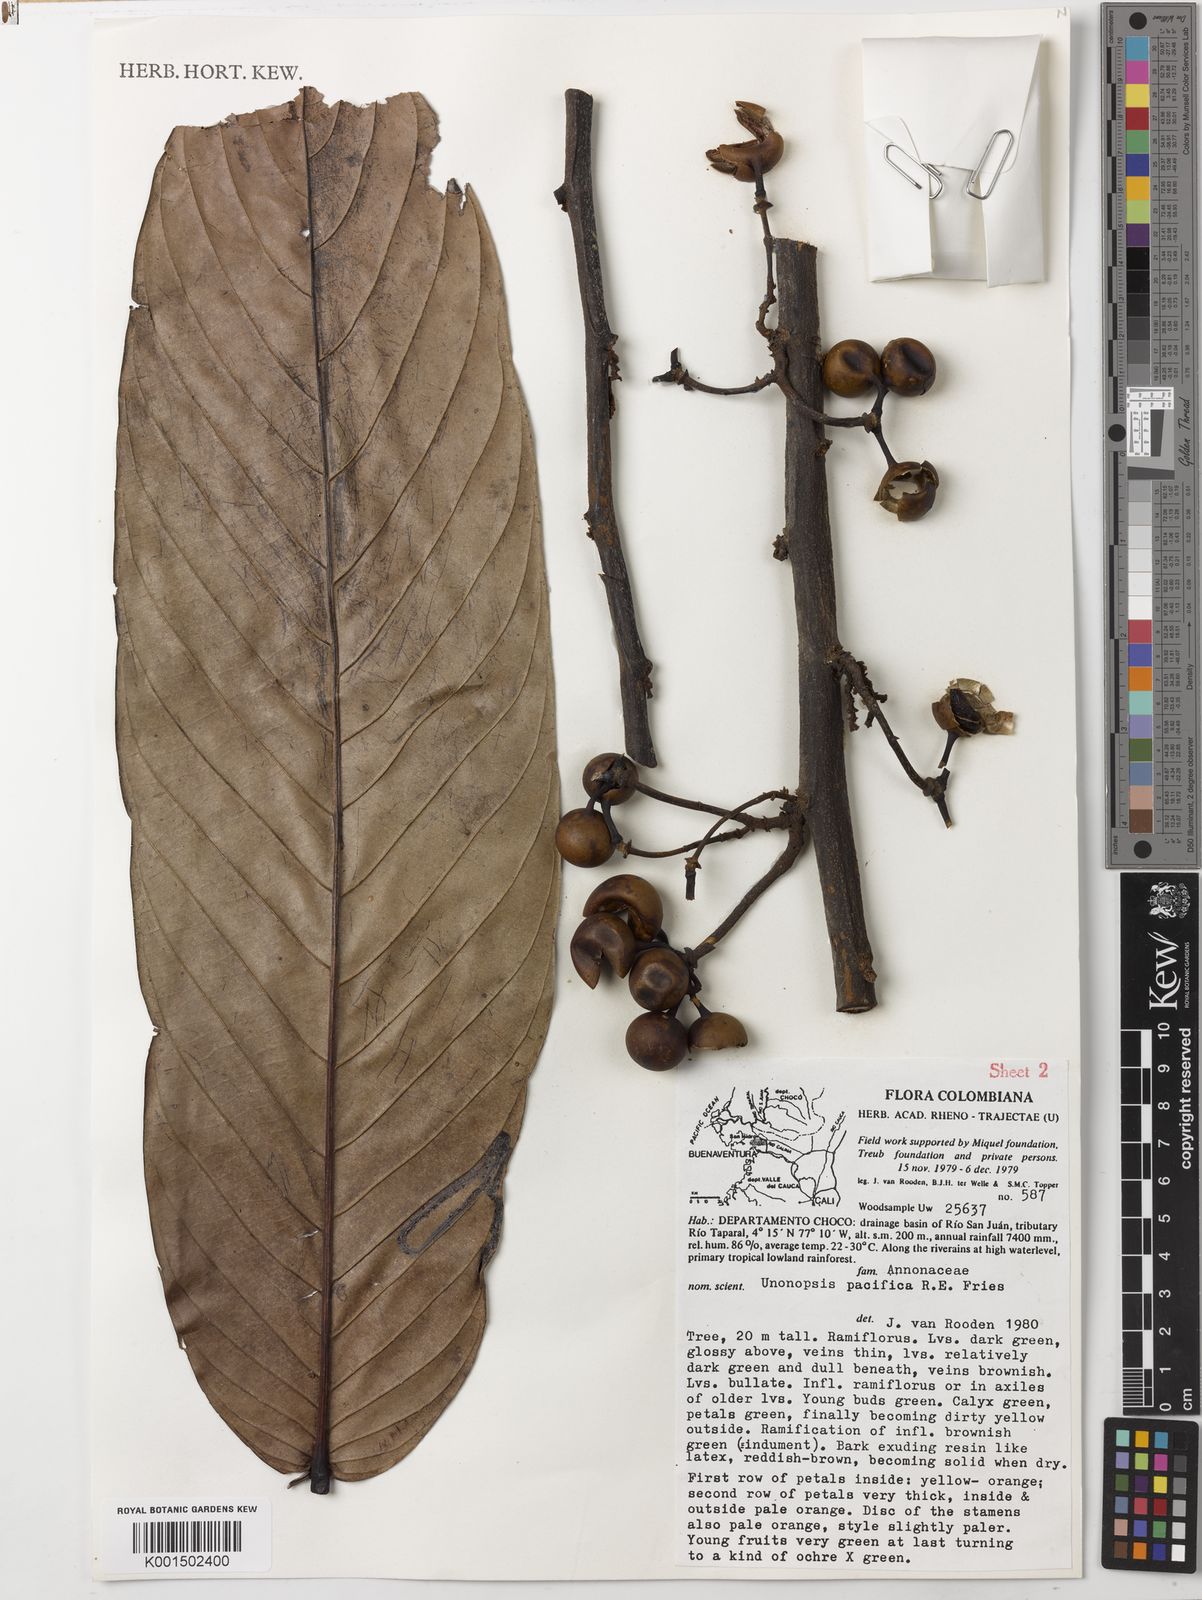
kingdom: Plantae
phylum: Tracheophyta
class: Magnoliopsida
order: Magnoliales
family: Annonaceae
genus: Unonopsis
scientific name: Unonopsis pacifica
